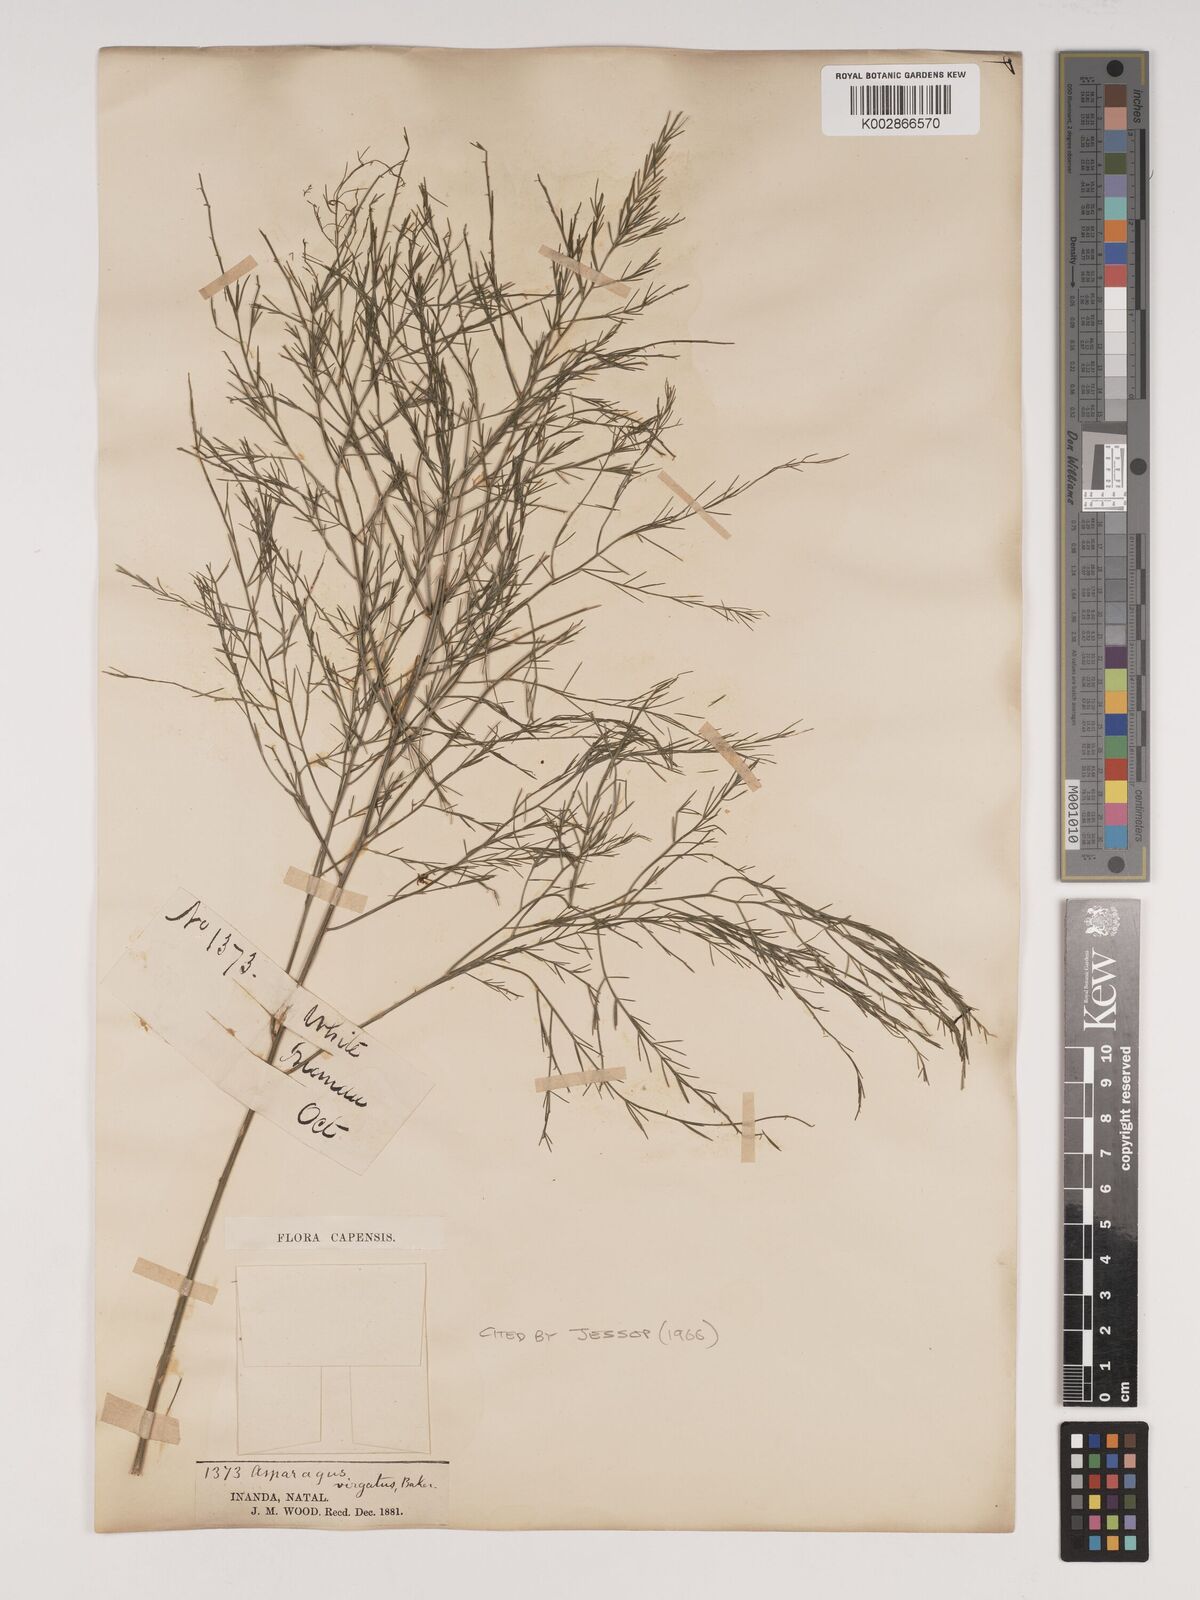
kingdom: Plantae
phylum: Tracheophyta
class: Liliopsida
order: Asparagales
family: Asparagaceae
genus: Asparagus
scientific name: Asparagus virgatus
